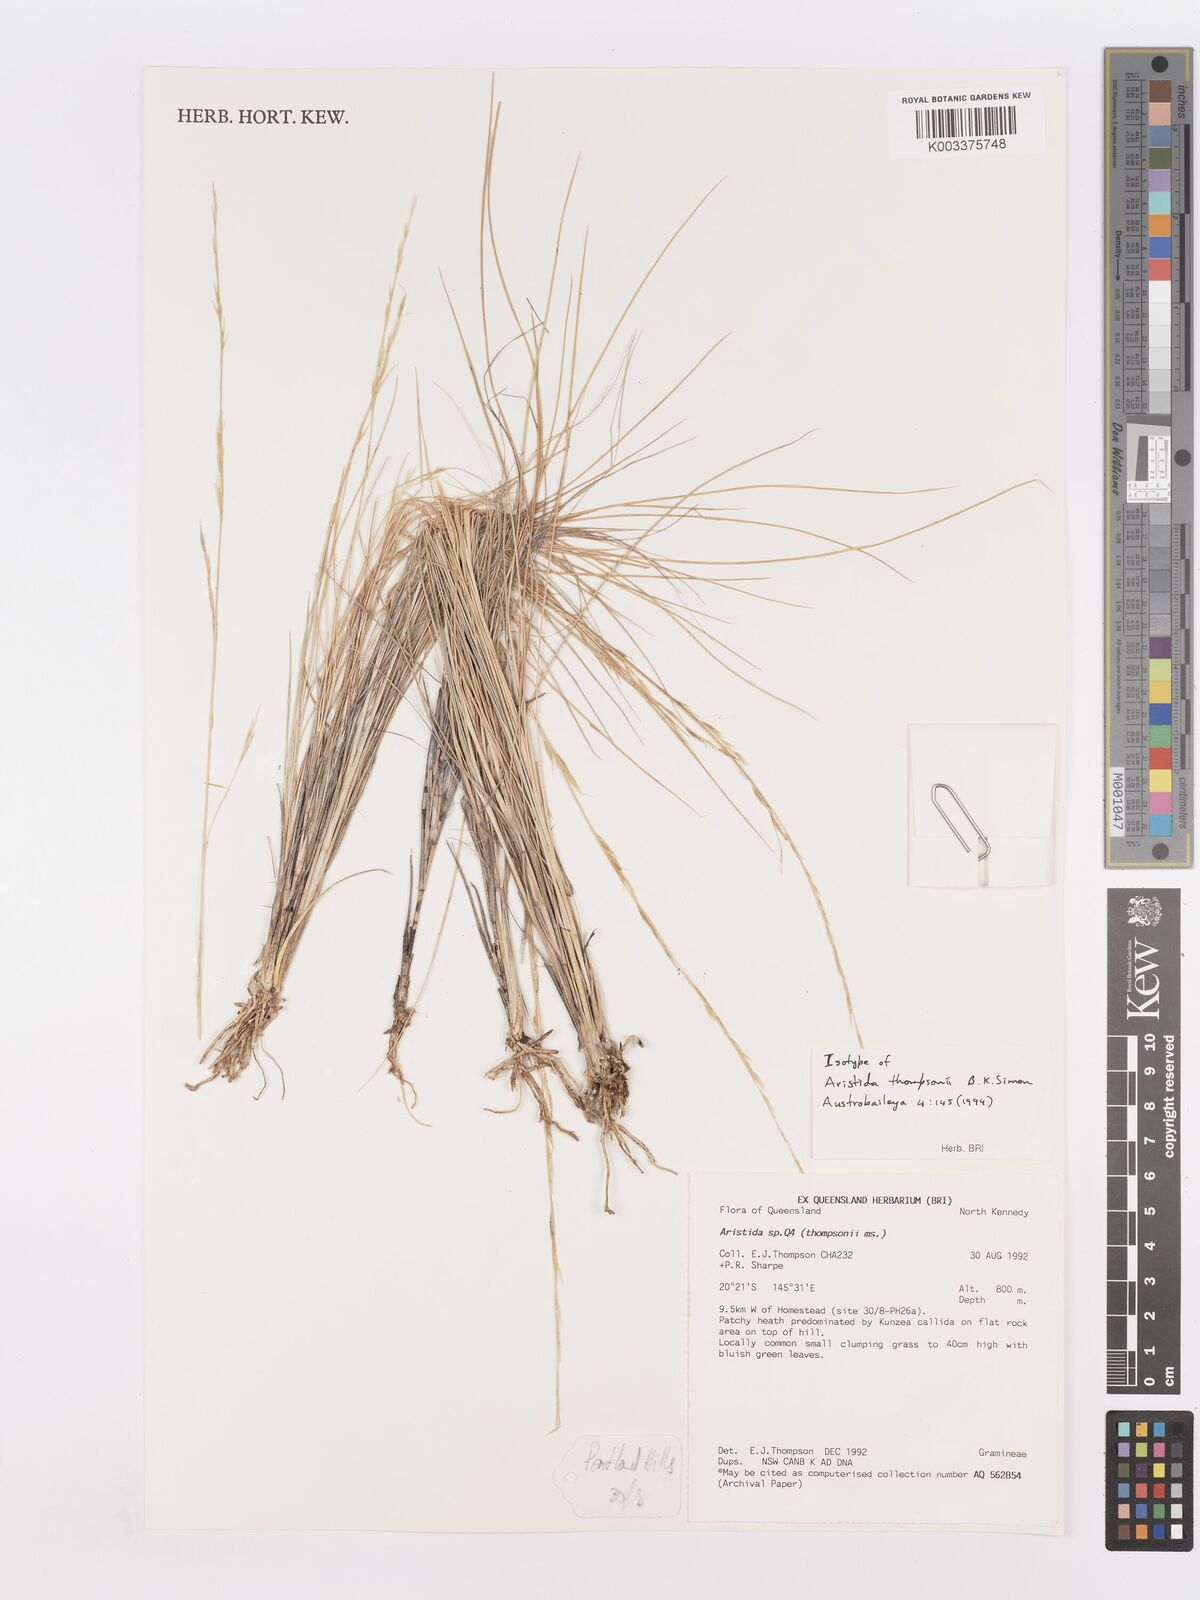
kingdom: Plantae
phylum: Tracheophyta
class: Liliopsida
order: Poales
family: Poaceae
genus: Aristida
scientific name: Aristida
